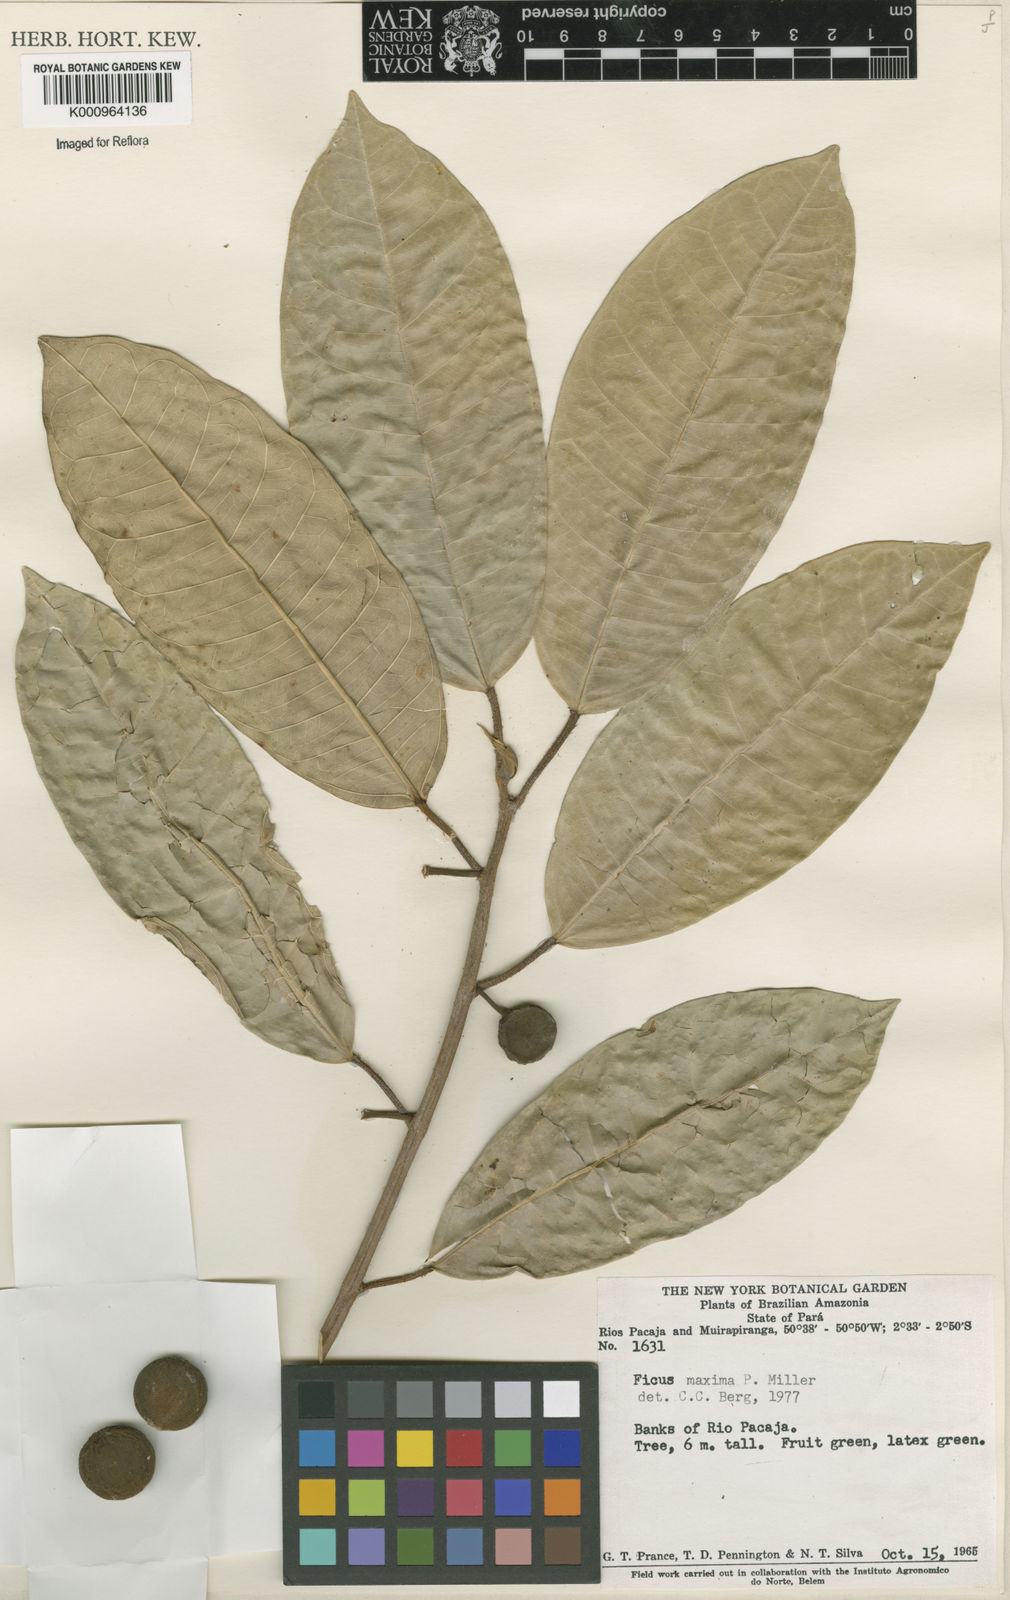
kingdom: Plantae
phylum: Tracheophyta
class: Magnoliopsida
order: Rosales
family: Moraceae
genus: Ficus
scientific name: Ficus maxima
